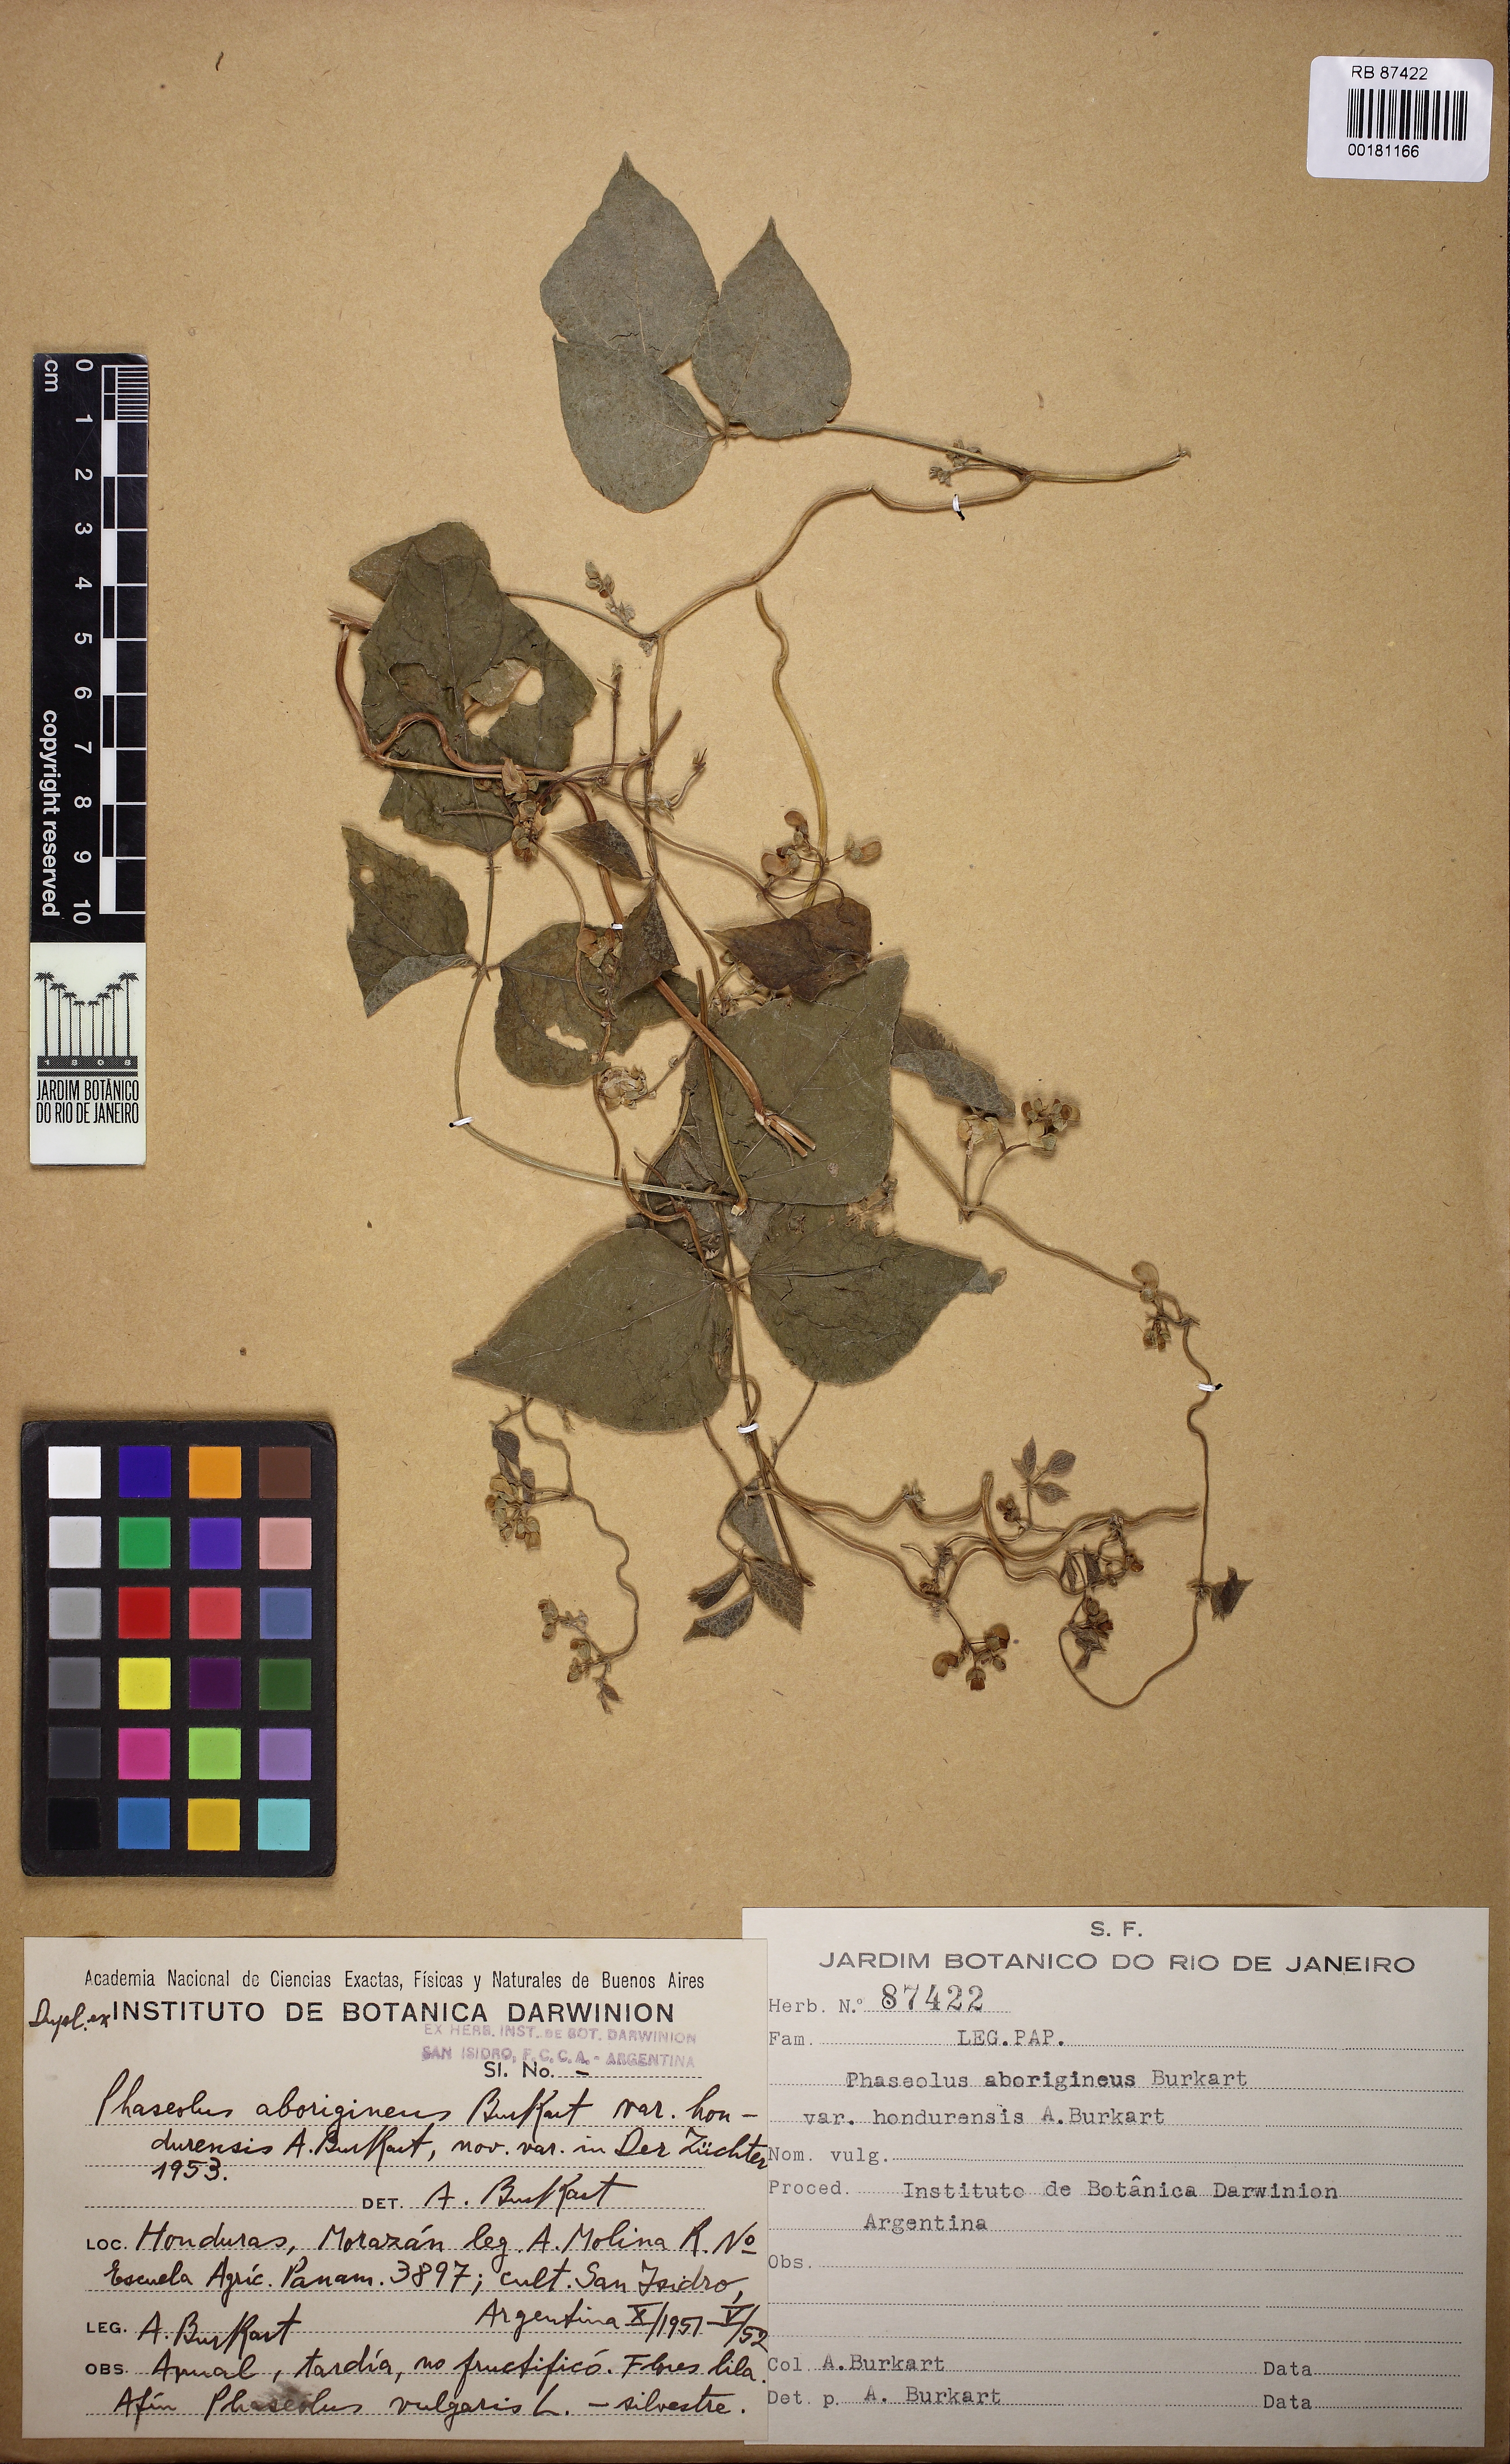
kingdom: Plantae
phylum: Tracheophyta
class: Magnoliopsida
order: Fabales
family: Fabaceae
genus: Phaseolus
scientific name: Phaseolus vulgaris
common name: Bean
